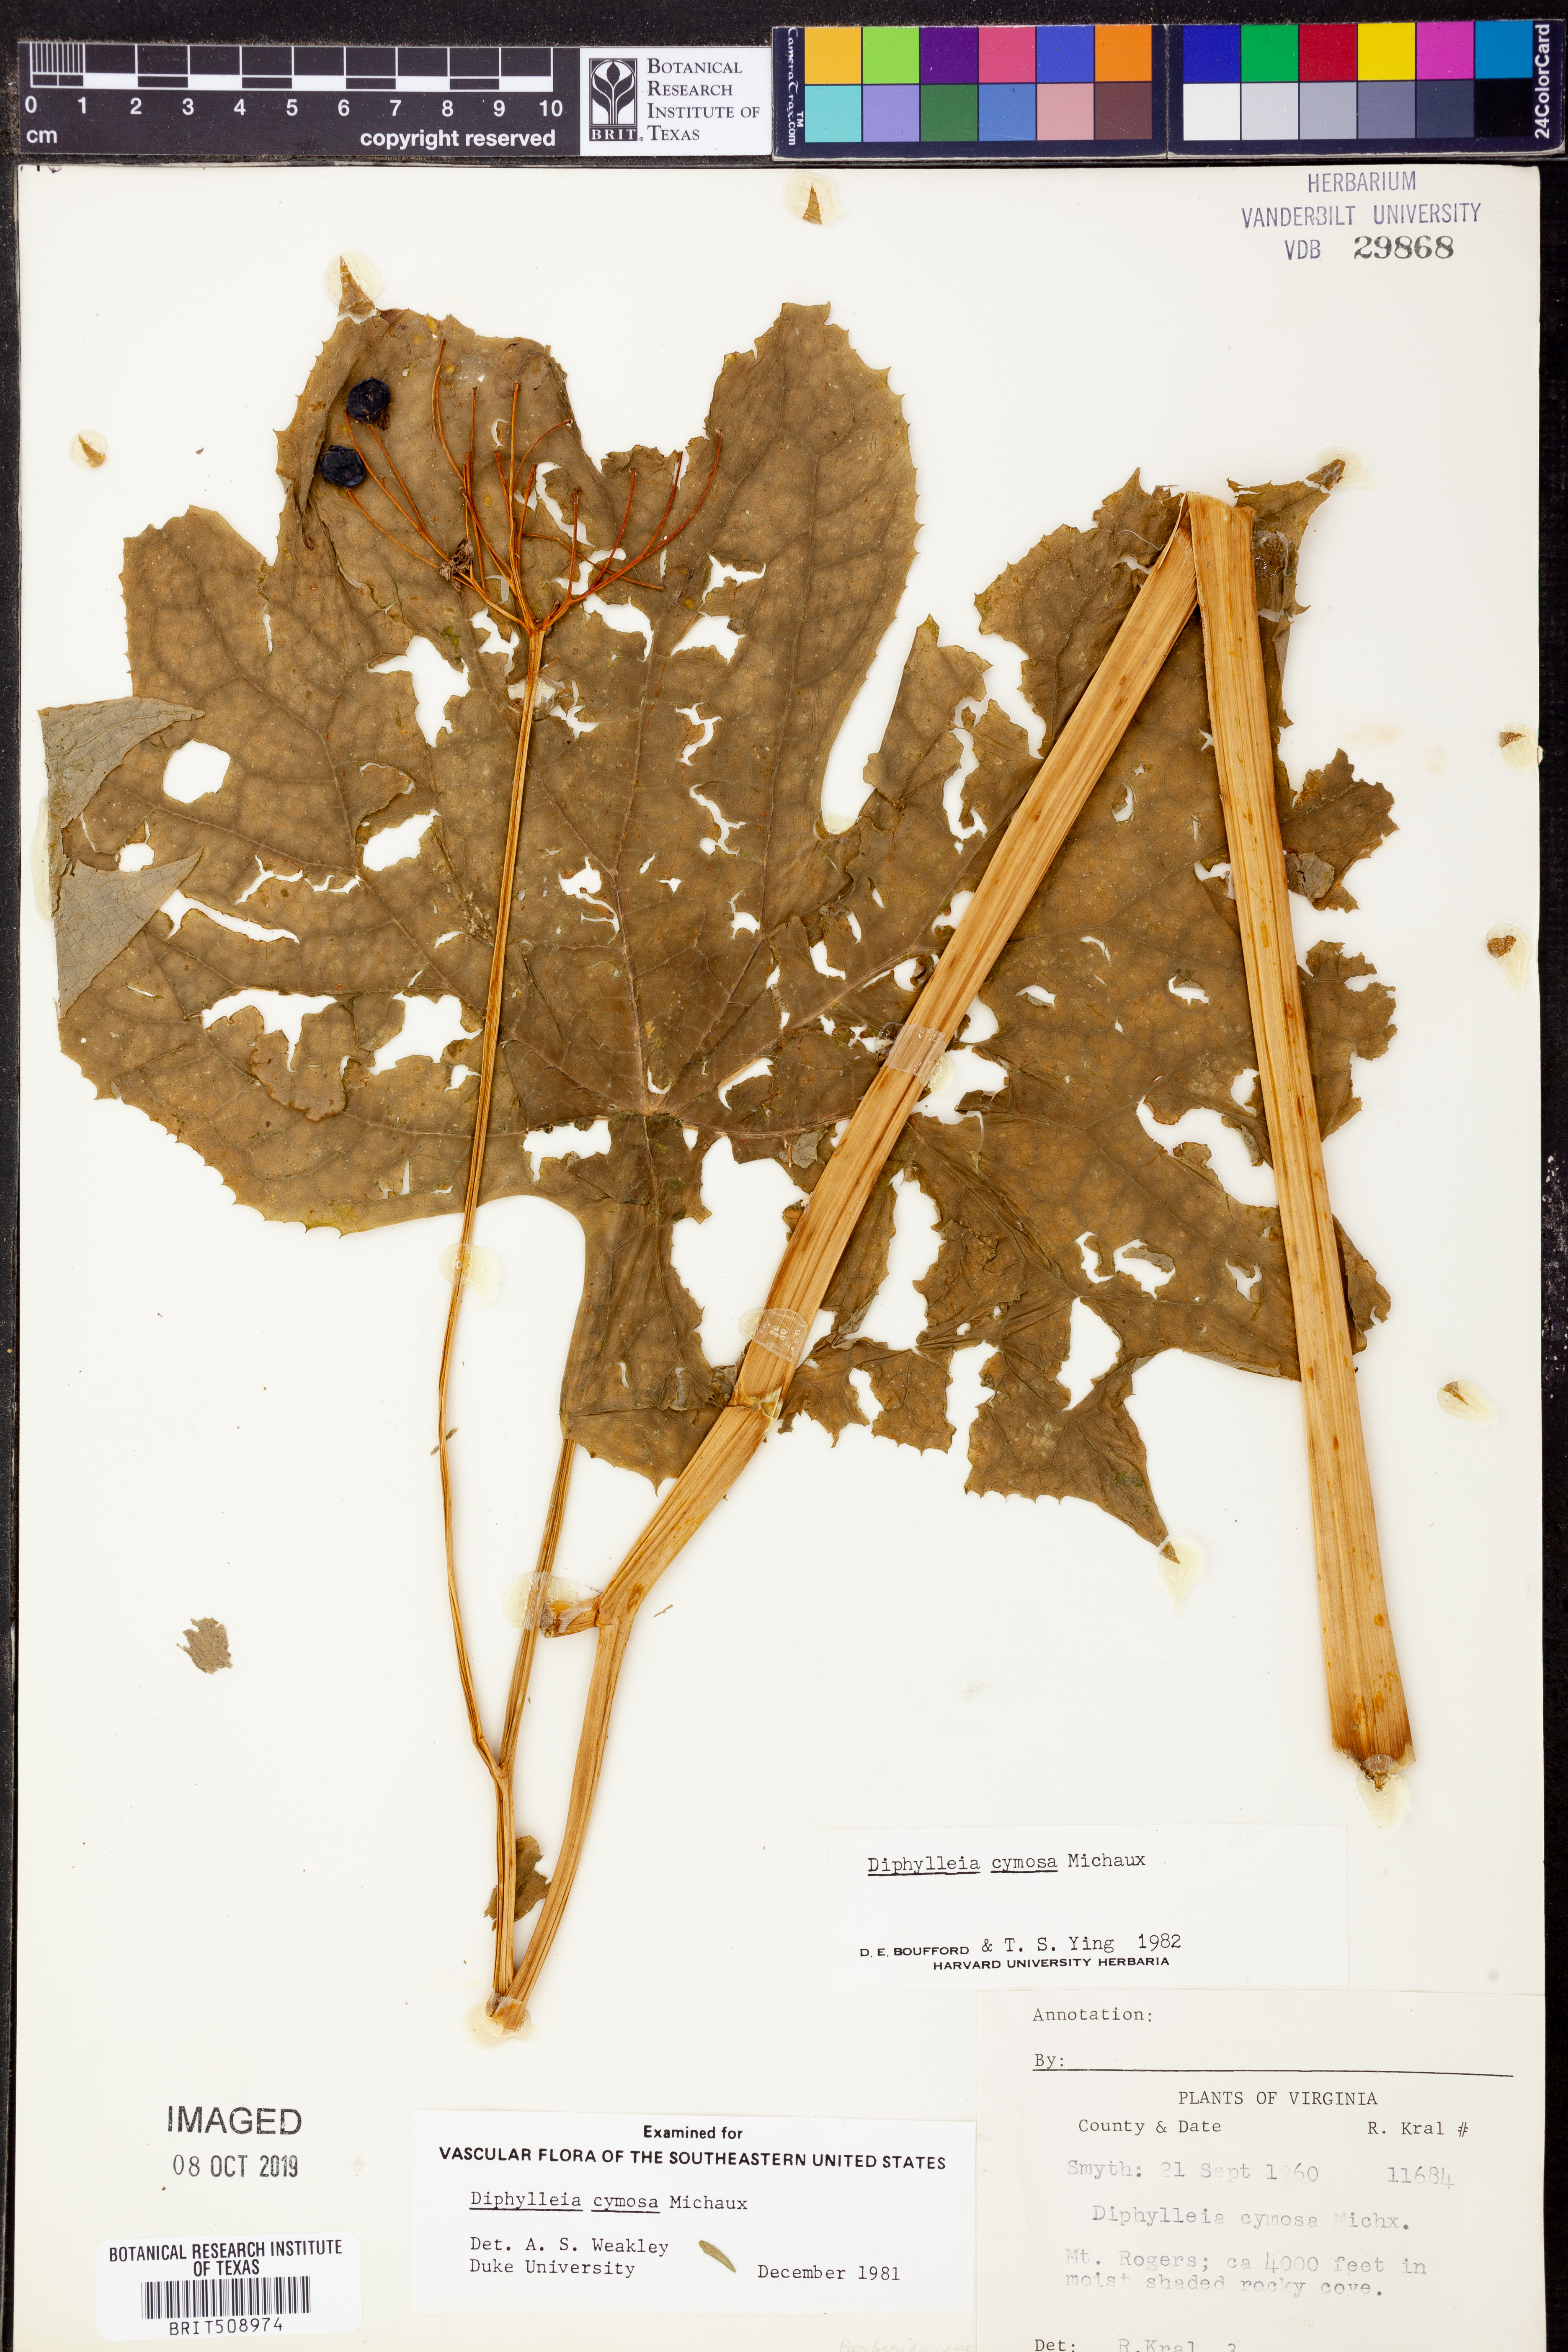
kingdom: Plantae
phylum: Tracheophyta
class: Magnoliopsida
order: Ranunculales
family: Berberidaceae
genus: Diphylleia
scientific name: Diphylleia cymosa
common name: Umbrella-leaf
